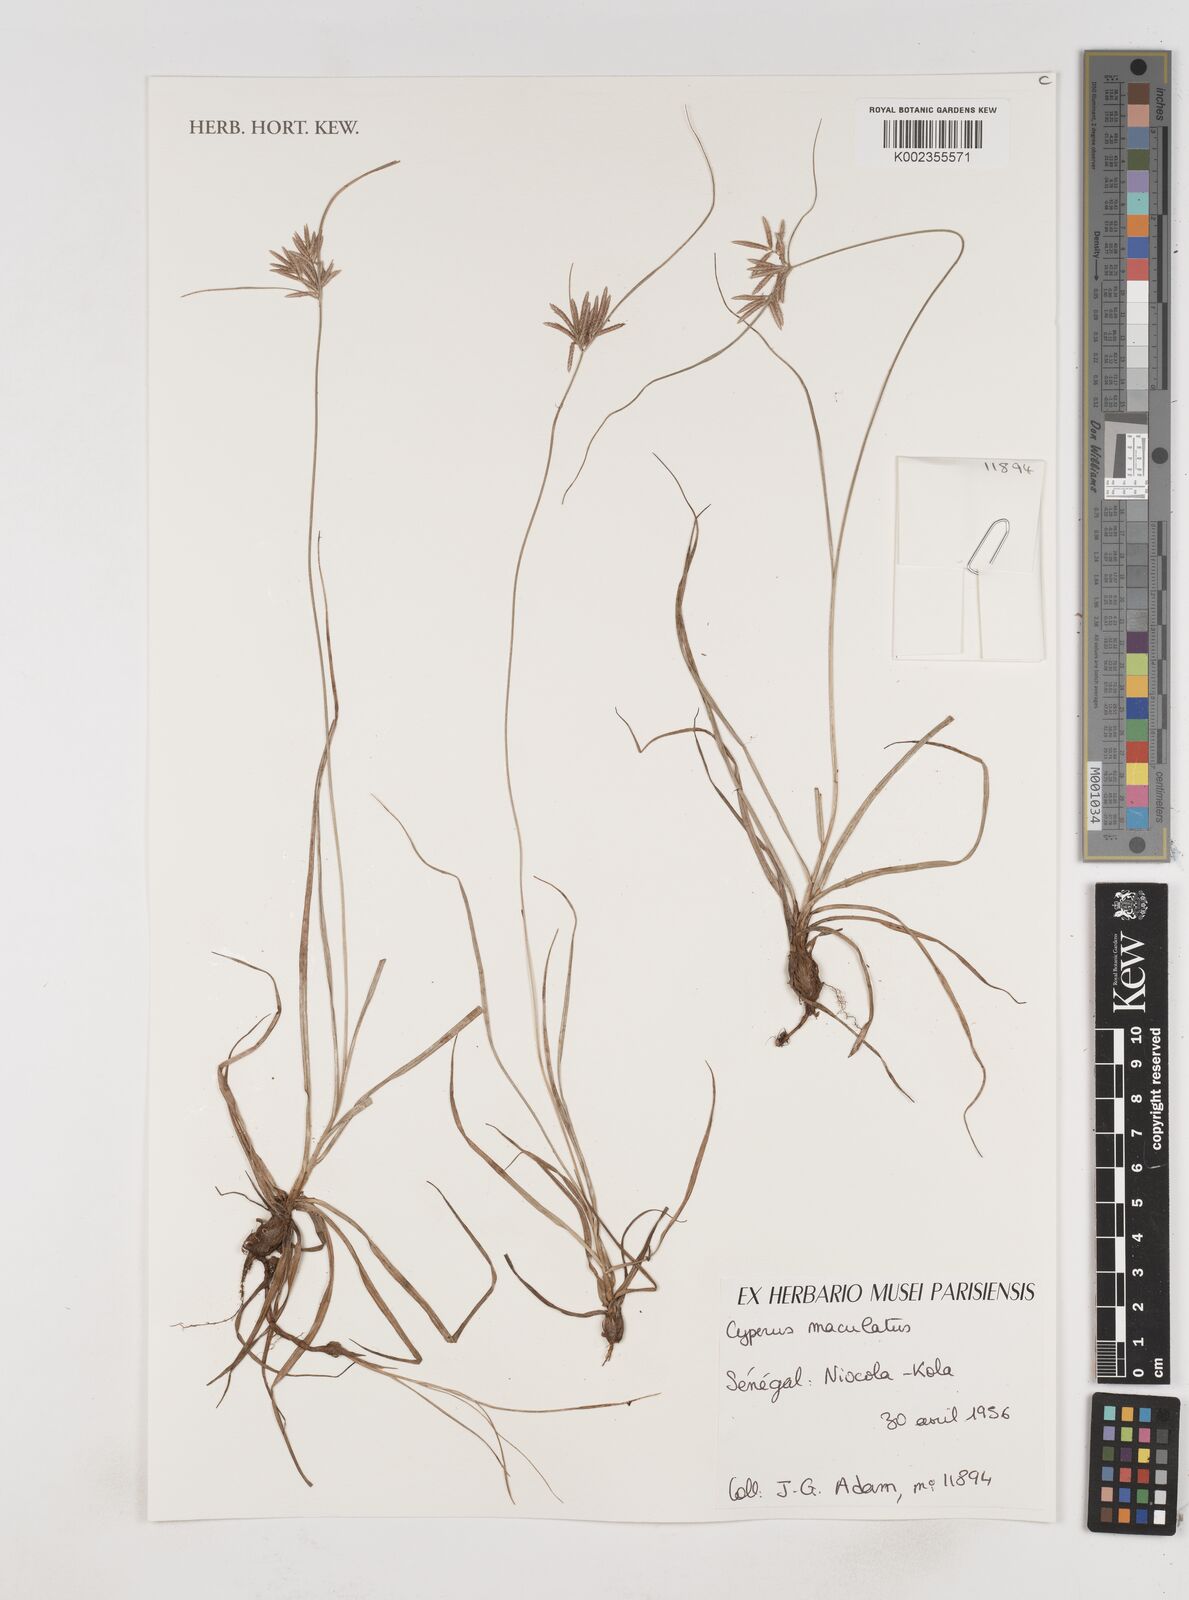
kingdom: Plantae
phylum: Tracheophyta
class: Liliopsida
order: Poales
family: Cyperaceae
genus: Cyperus
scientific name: Cyperus maculatus
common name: Maculated sedge
